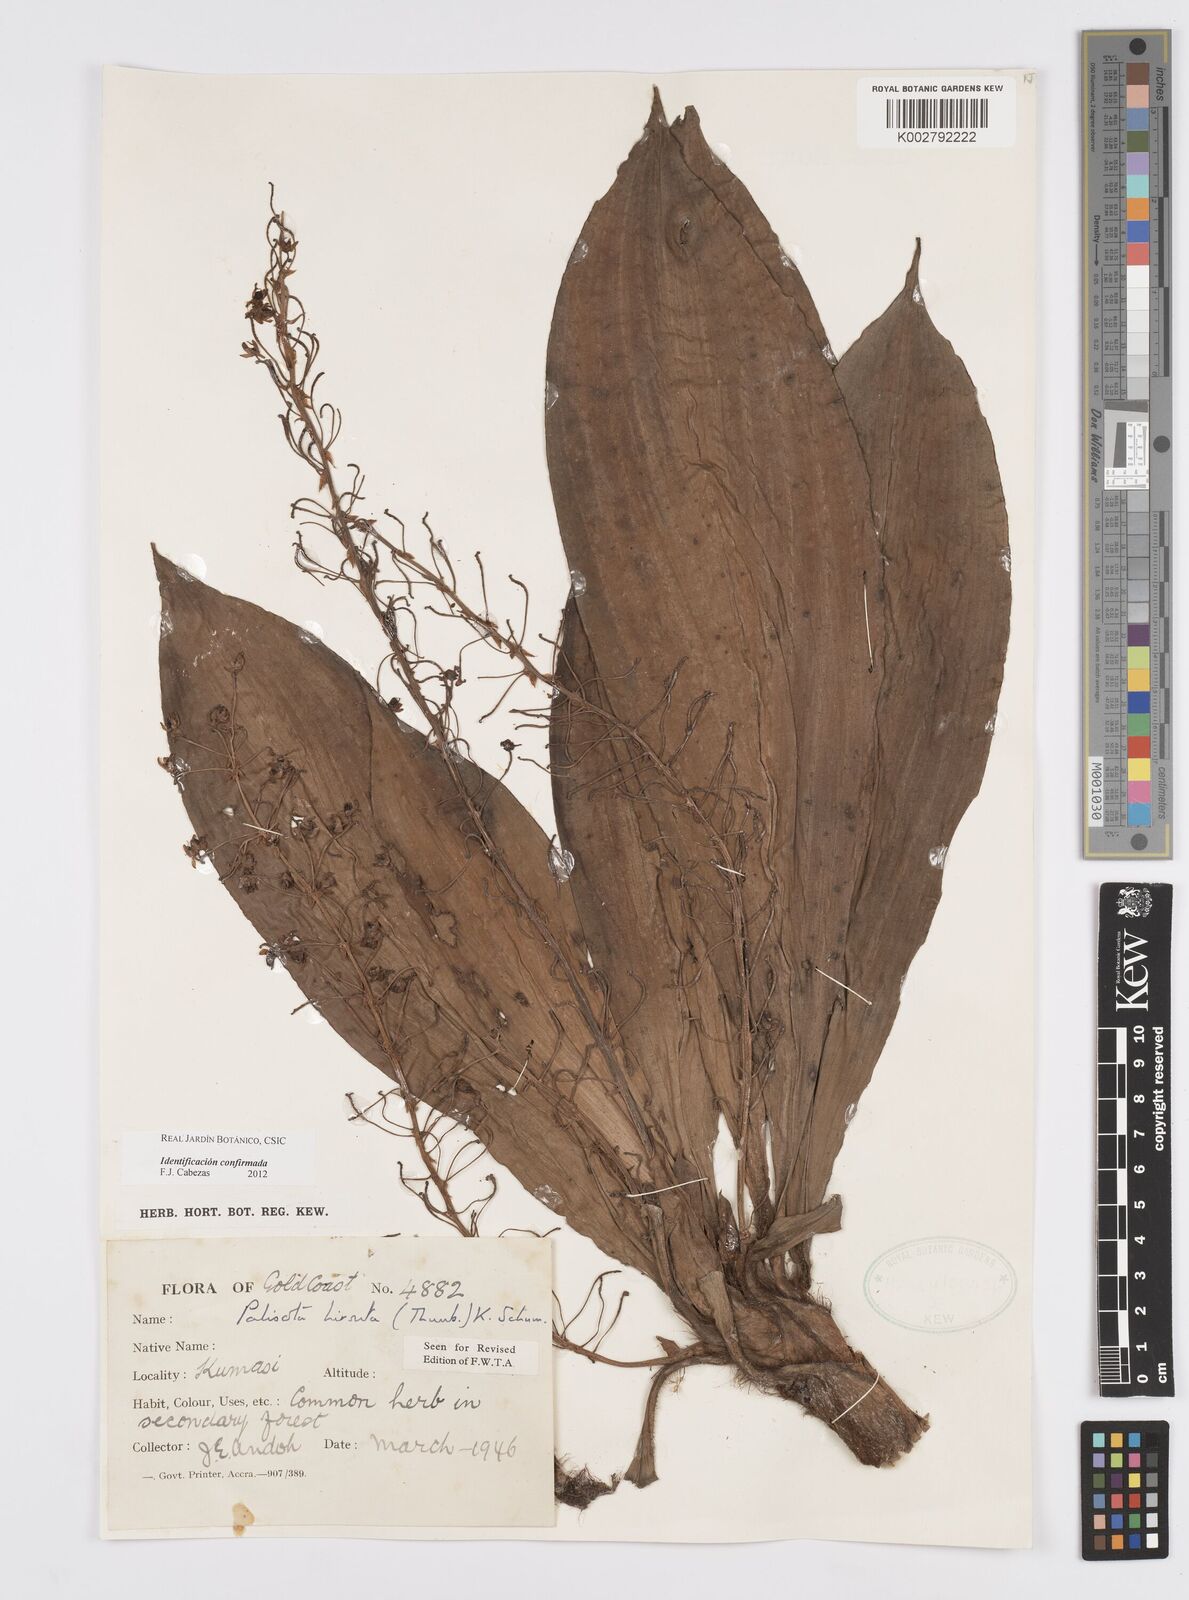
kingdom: Plantae
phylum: Tracheophyta
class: Liliopsida
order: Commelinales
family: Commelinaceae
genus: Palisota
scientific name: Palisota hirsuta
